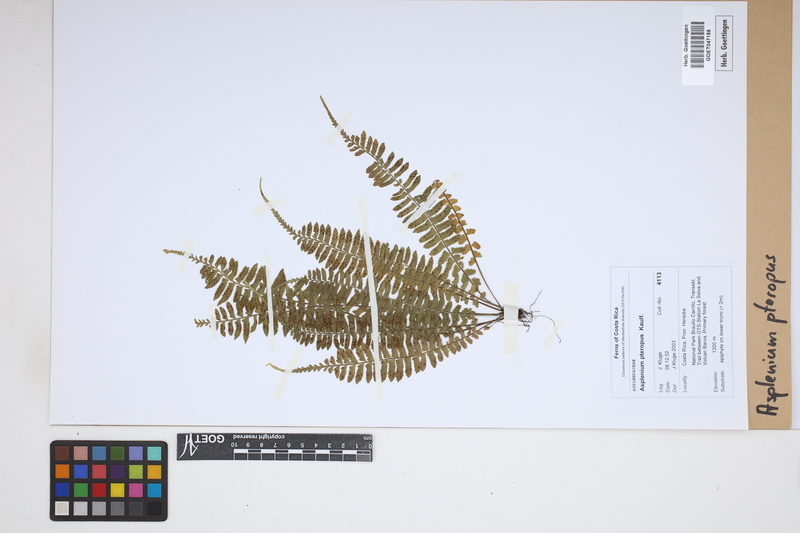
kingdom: Plantae
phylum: Tracheophyta
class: Polypodiopsida
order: Polypodiales
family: Aspleniaceae
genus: Asplenium
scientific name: Asplenium pteropus
